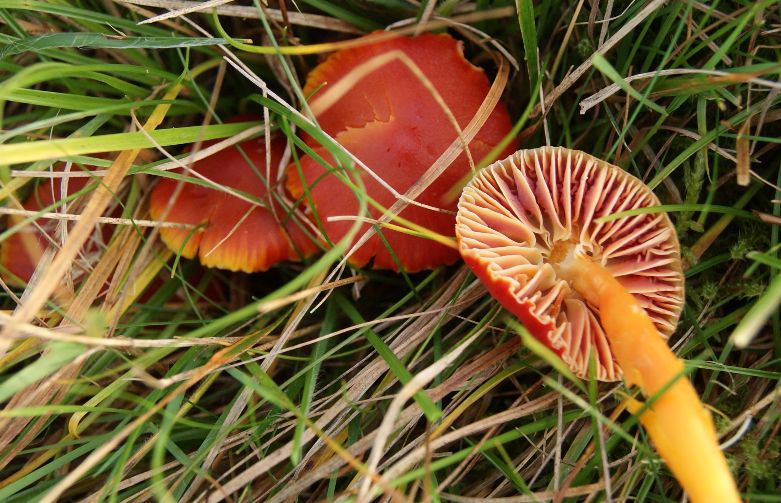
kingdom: Fungi
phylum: Basidiomycota
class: Agaricomycetes
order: Agaricales
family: Hygrophoraceae
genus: Hygrocybe
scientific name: Hygrocybe coccinea
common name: cinnober-vokshat
